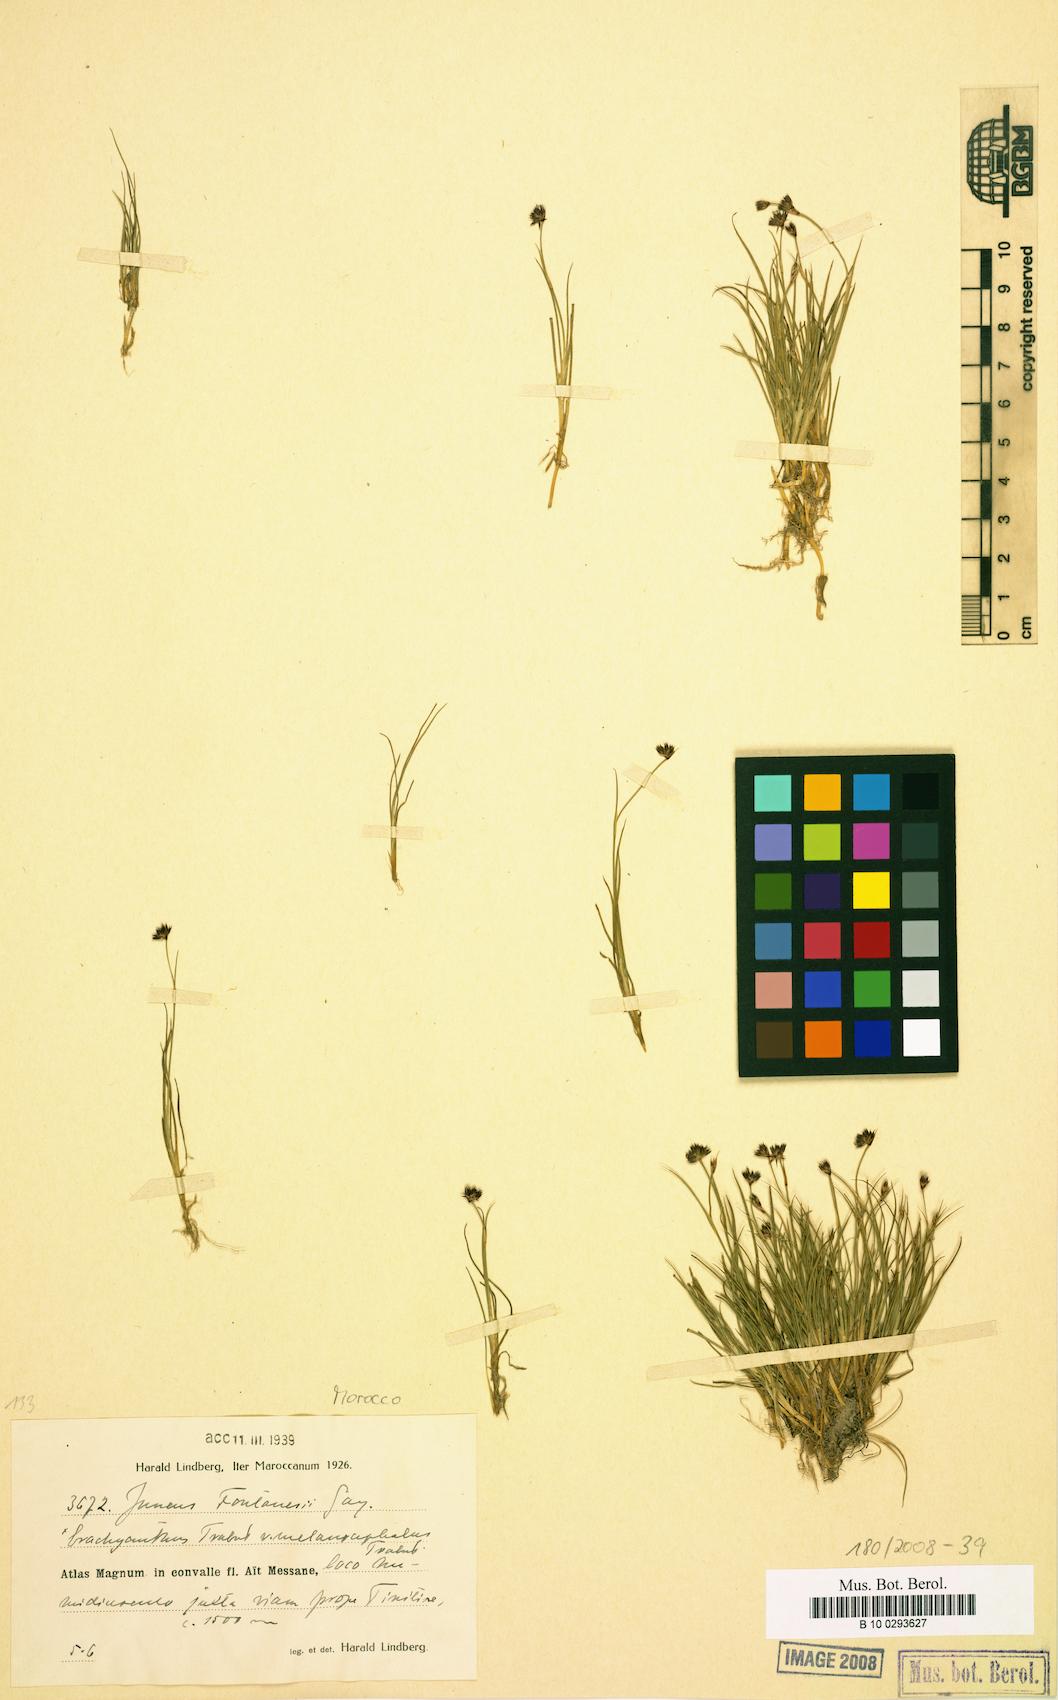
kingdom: Plantae
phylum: Tracheophyta
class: Liliopsida
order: Poales
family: Juncaceae
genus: Juncus
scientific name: Juncus fontanesii
